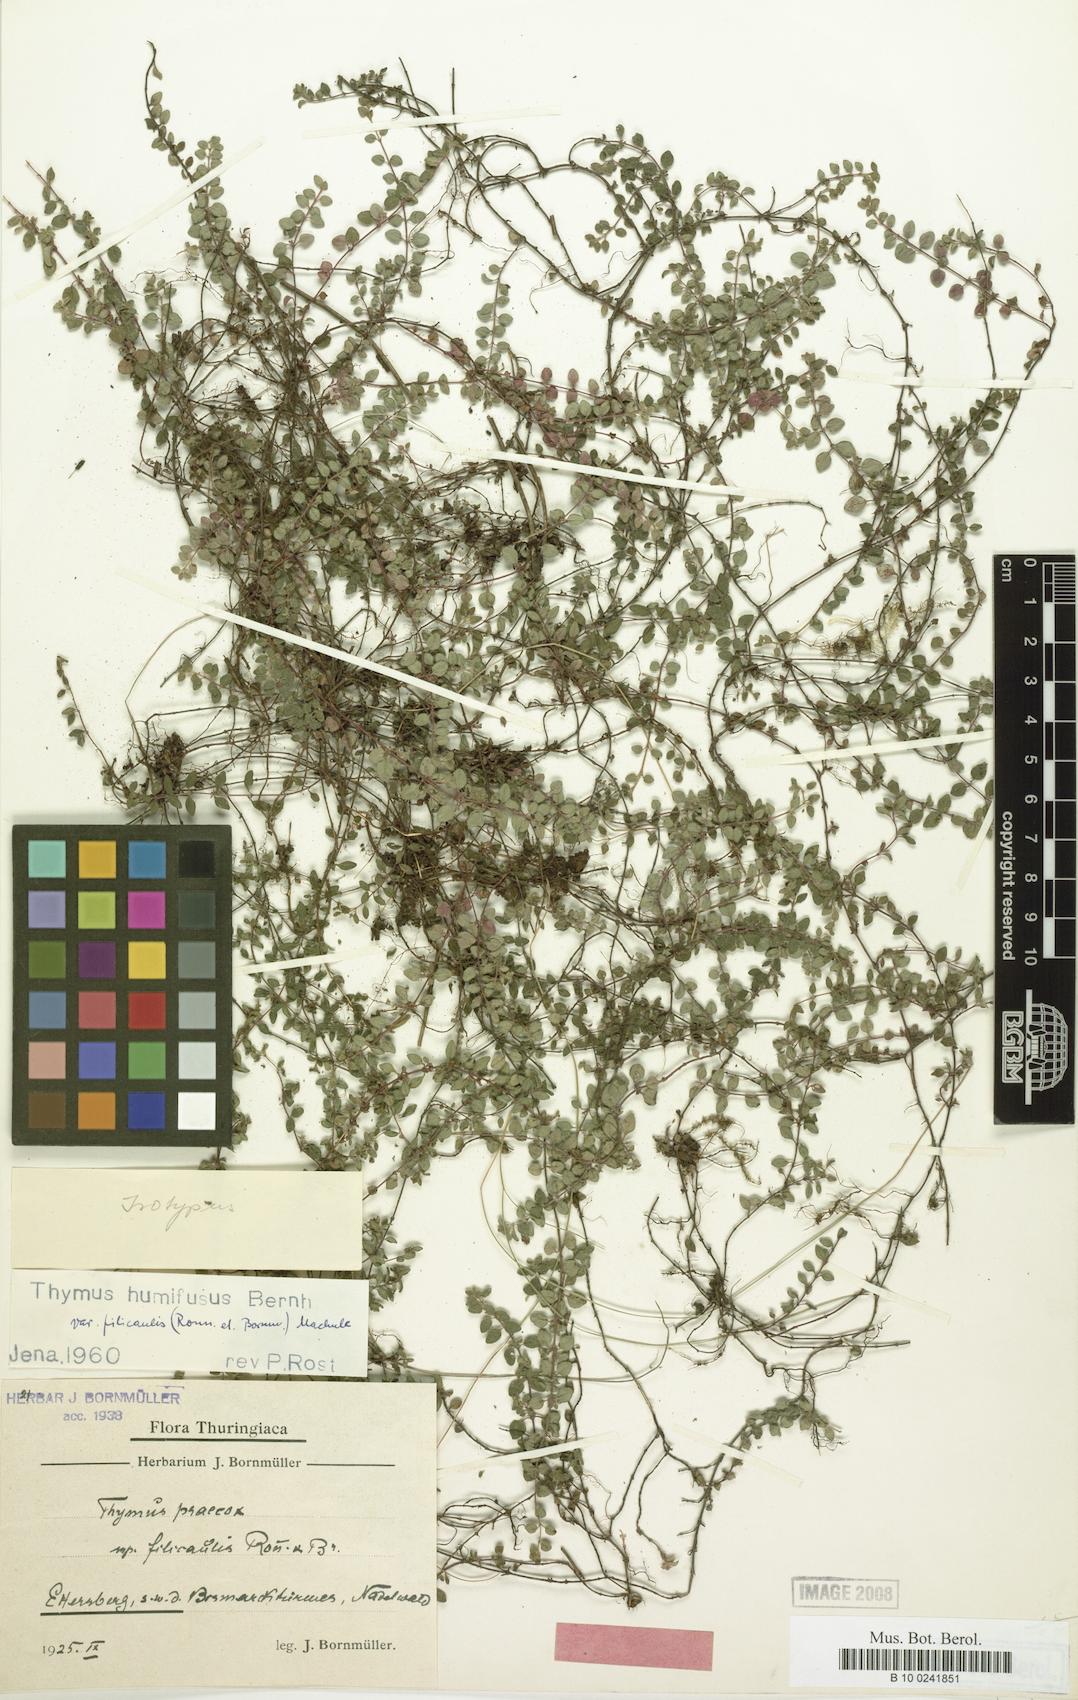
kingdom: Plantae
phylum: Tracheophyta
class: Magnoliopsida
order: Lamiales
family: Lamiaceae
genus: Thymus
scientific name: Thymus praecox
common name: Wild thyme
